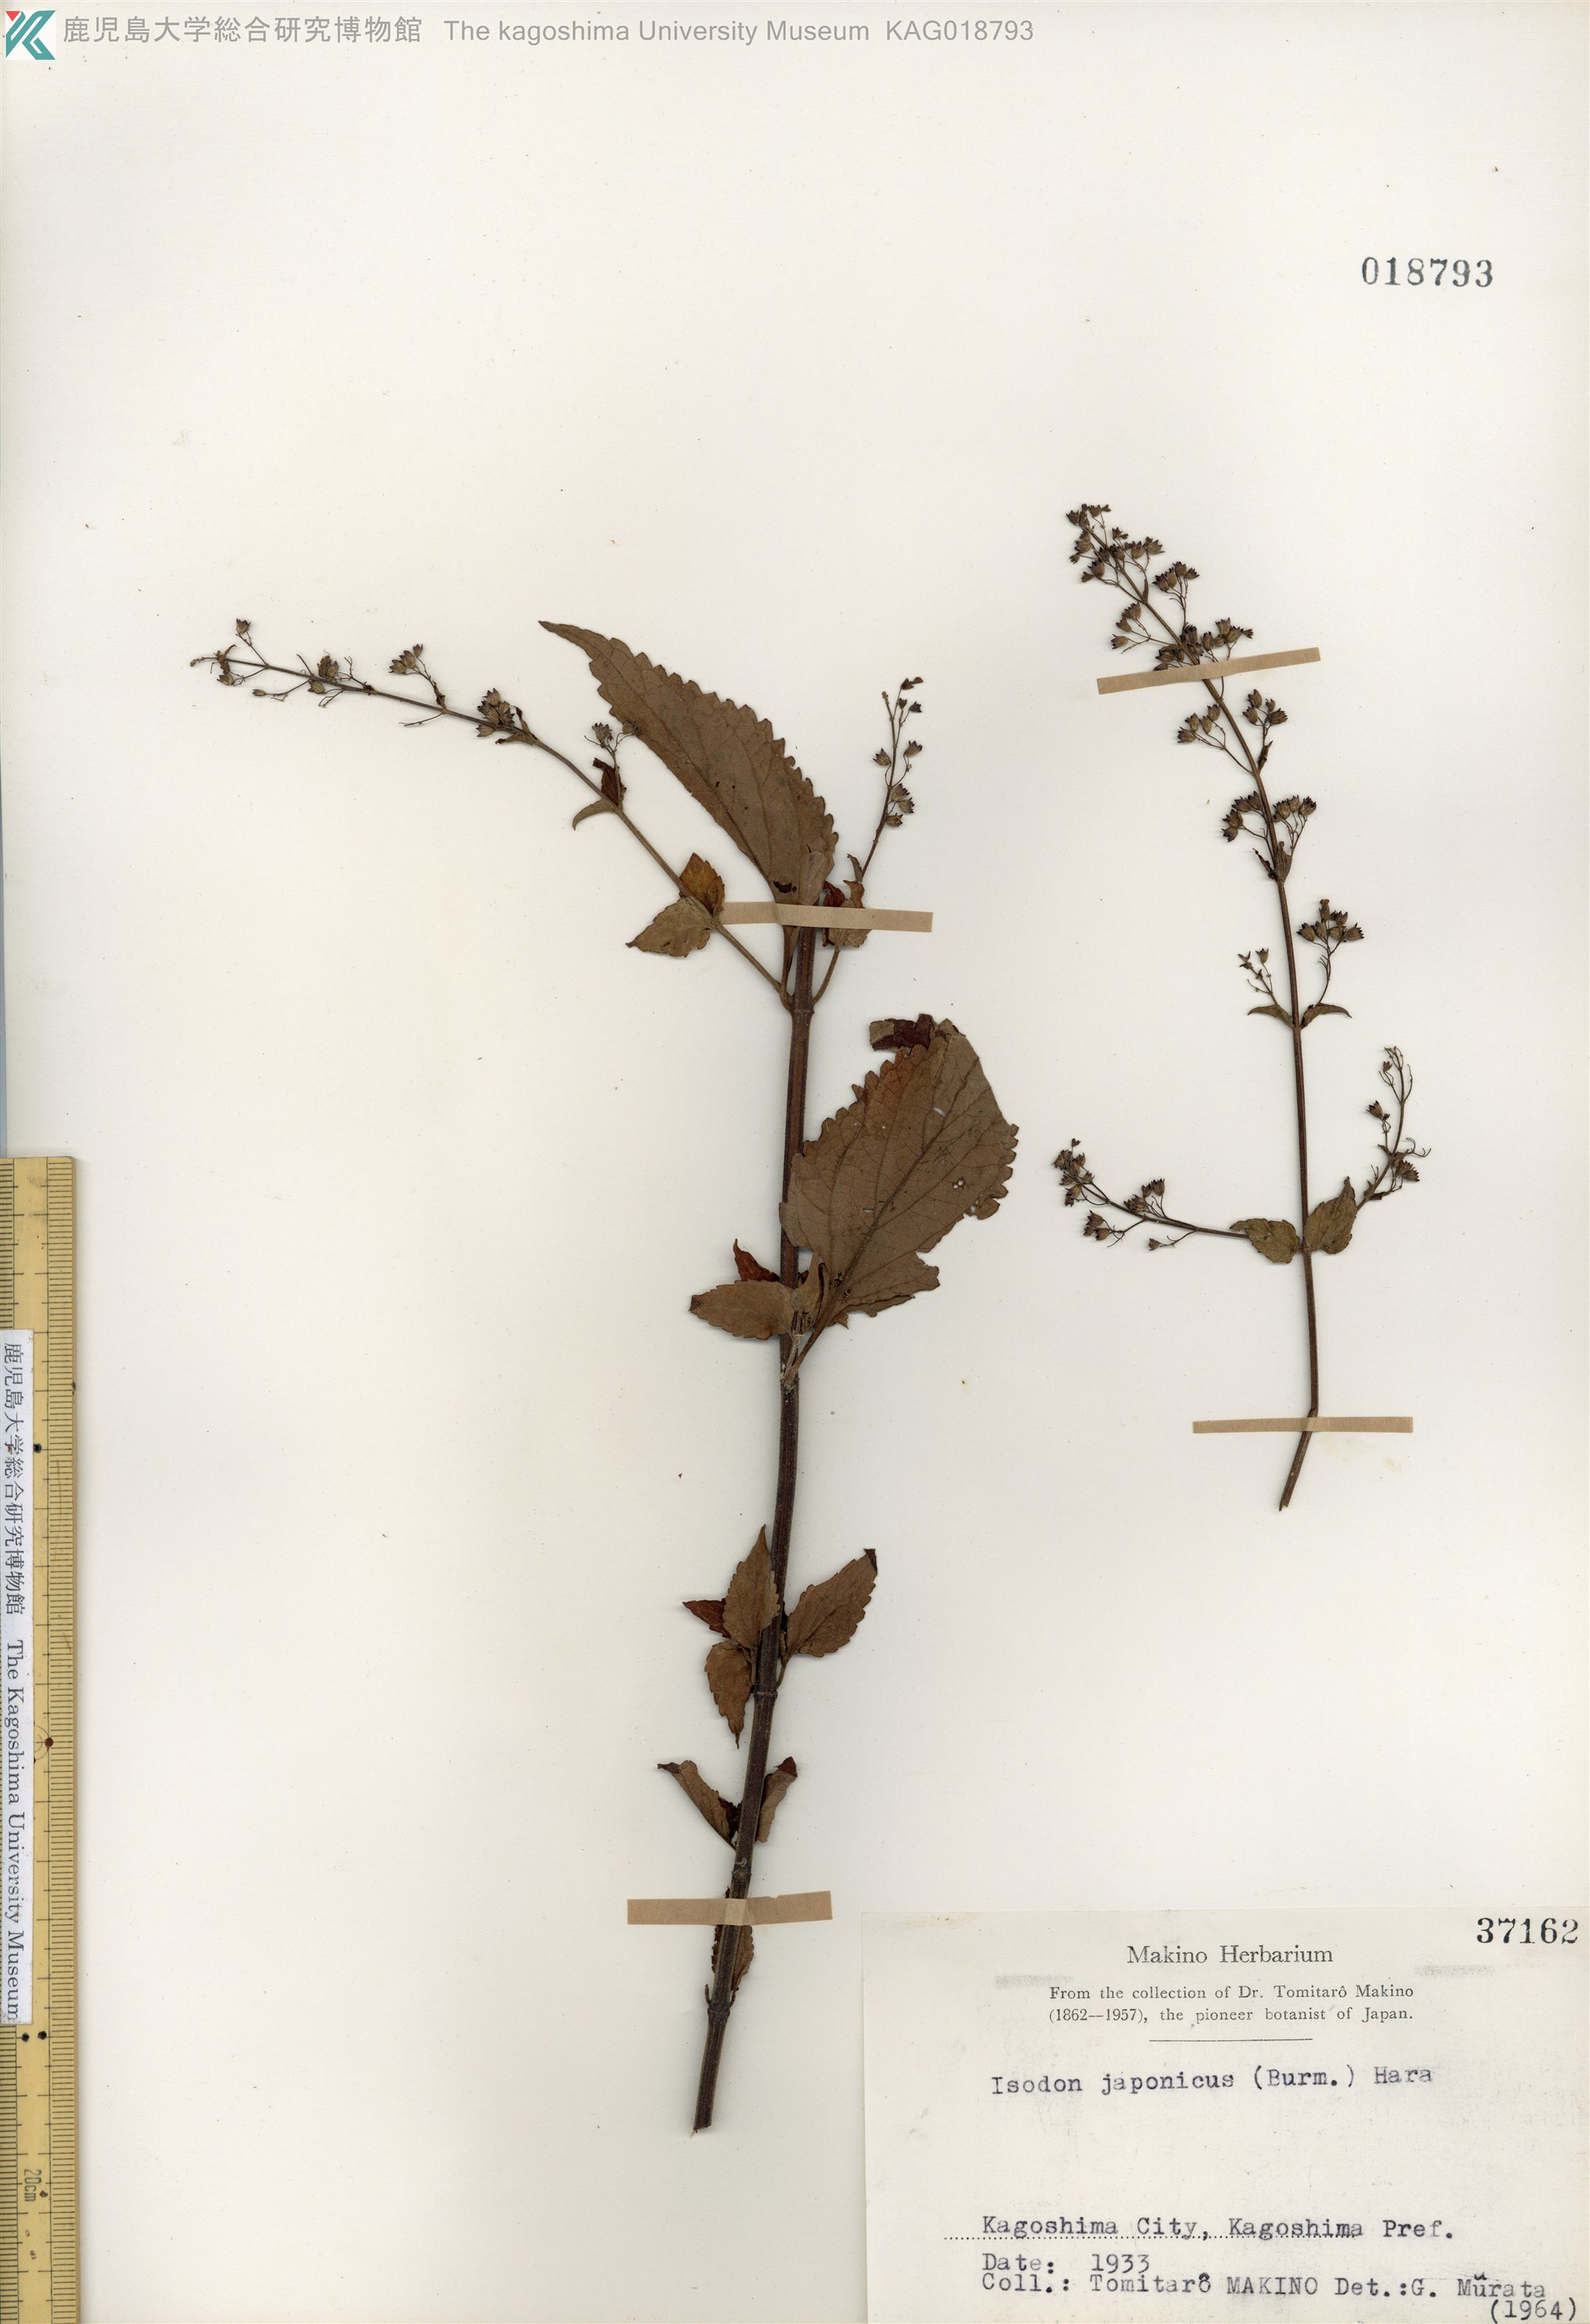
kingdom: Plantae
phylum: Tracheophyta
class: Magnoliopsida
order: Lamiales
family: Lamiaceae
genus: Isodon
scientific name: Isodon japonicus
